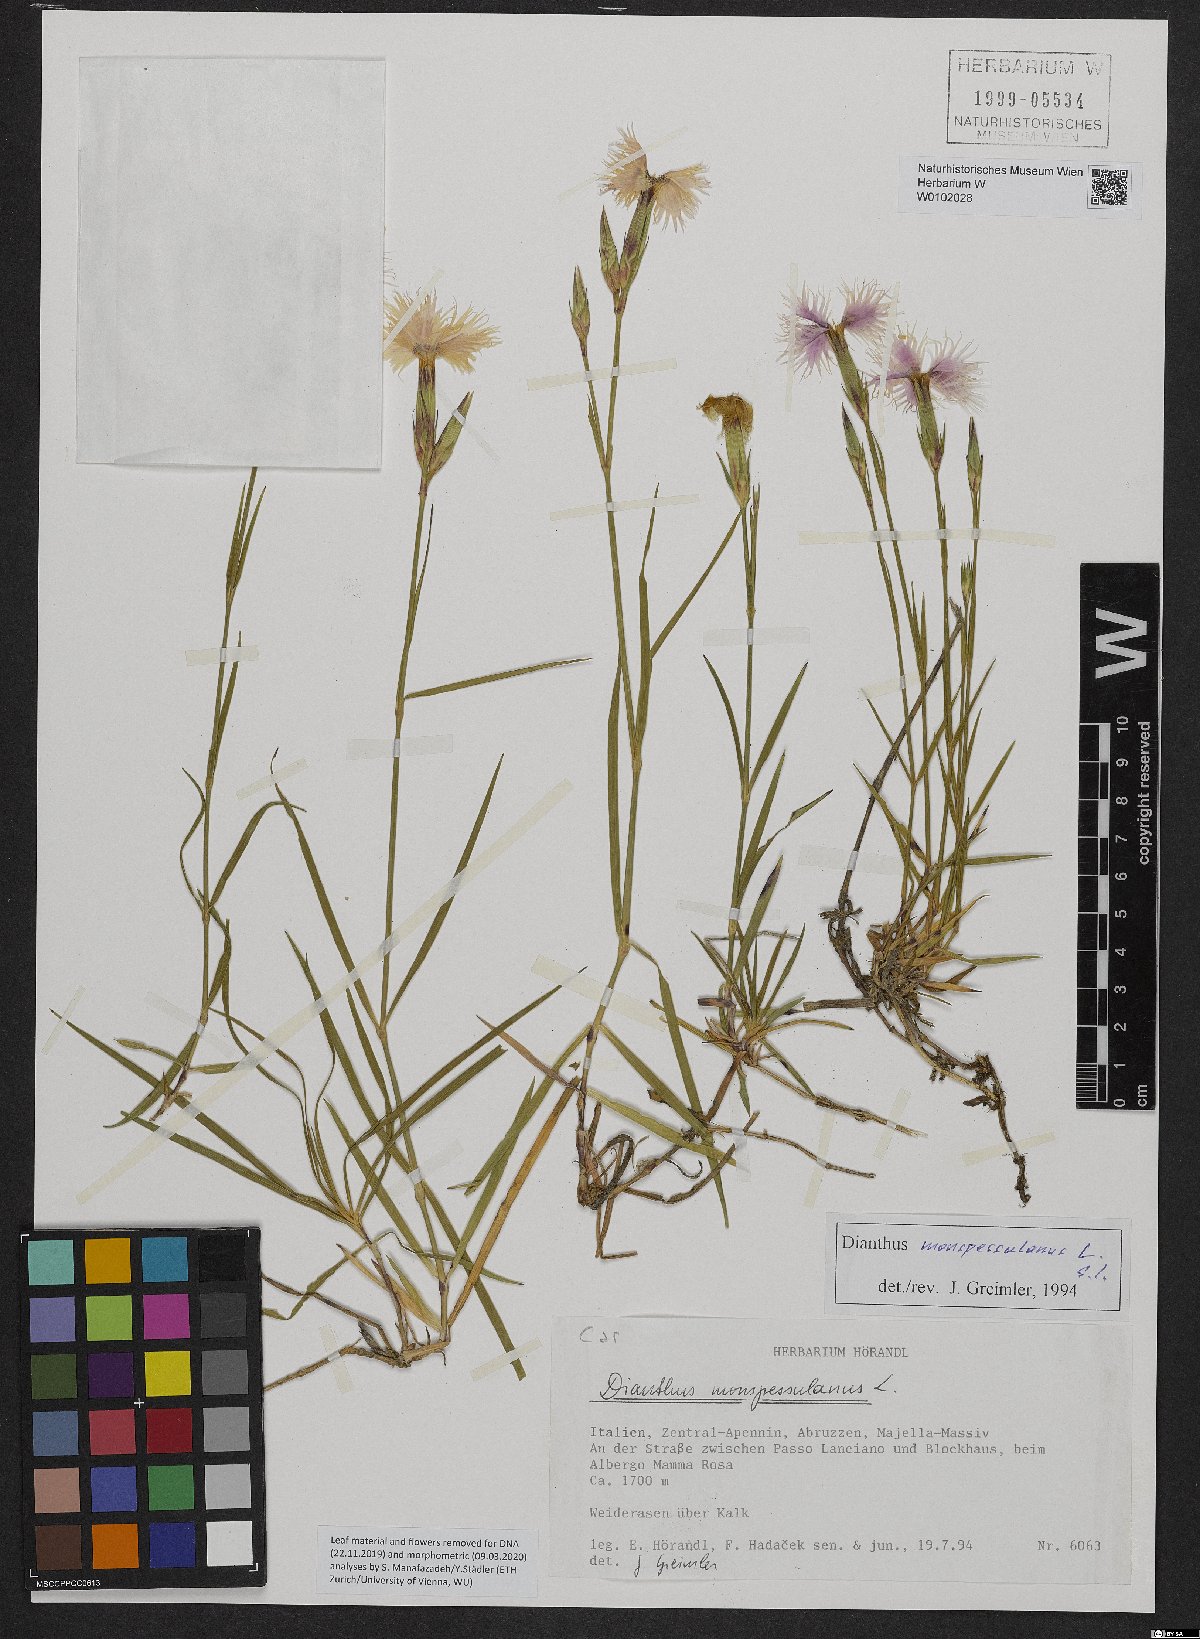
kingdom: Plantae
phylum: Tracheophyta
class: Magnoliopsida
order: Caryophyllales
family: Caryophyllaceae
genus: Dianthus
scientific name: Dianthus hyssopifolius
